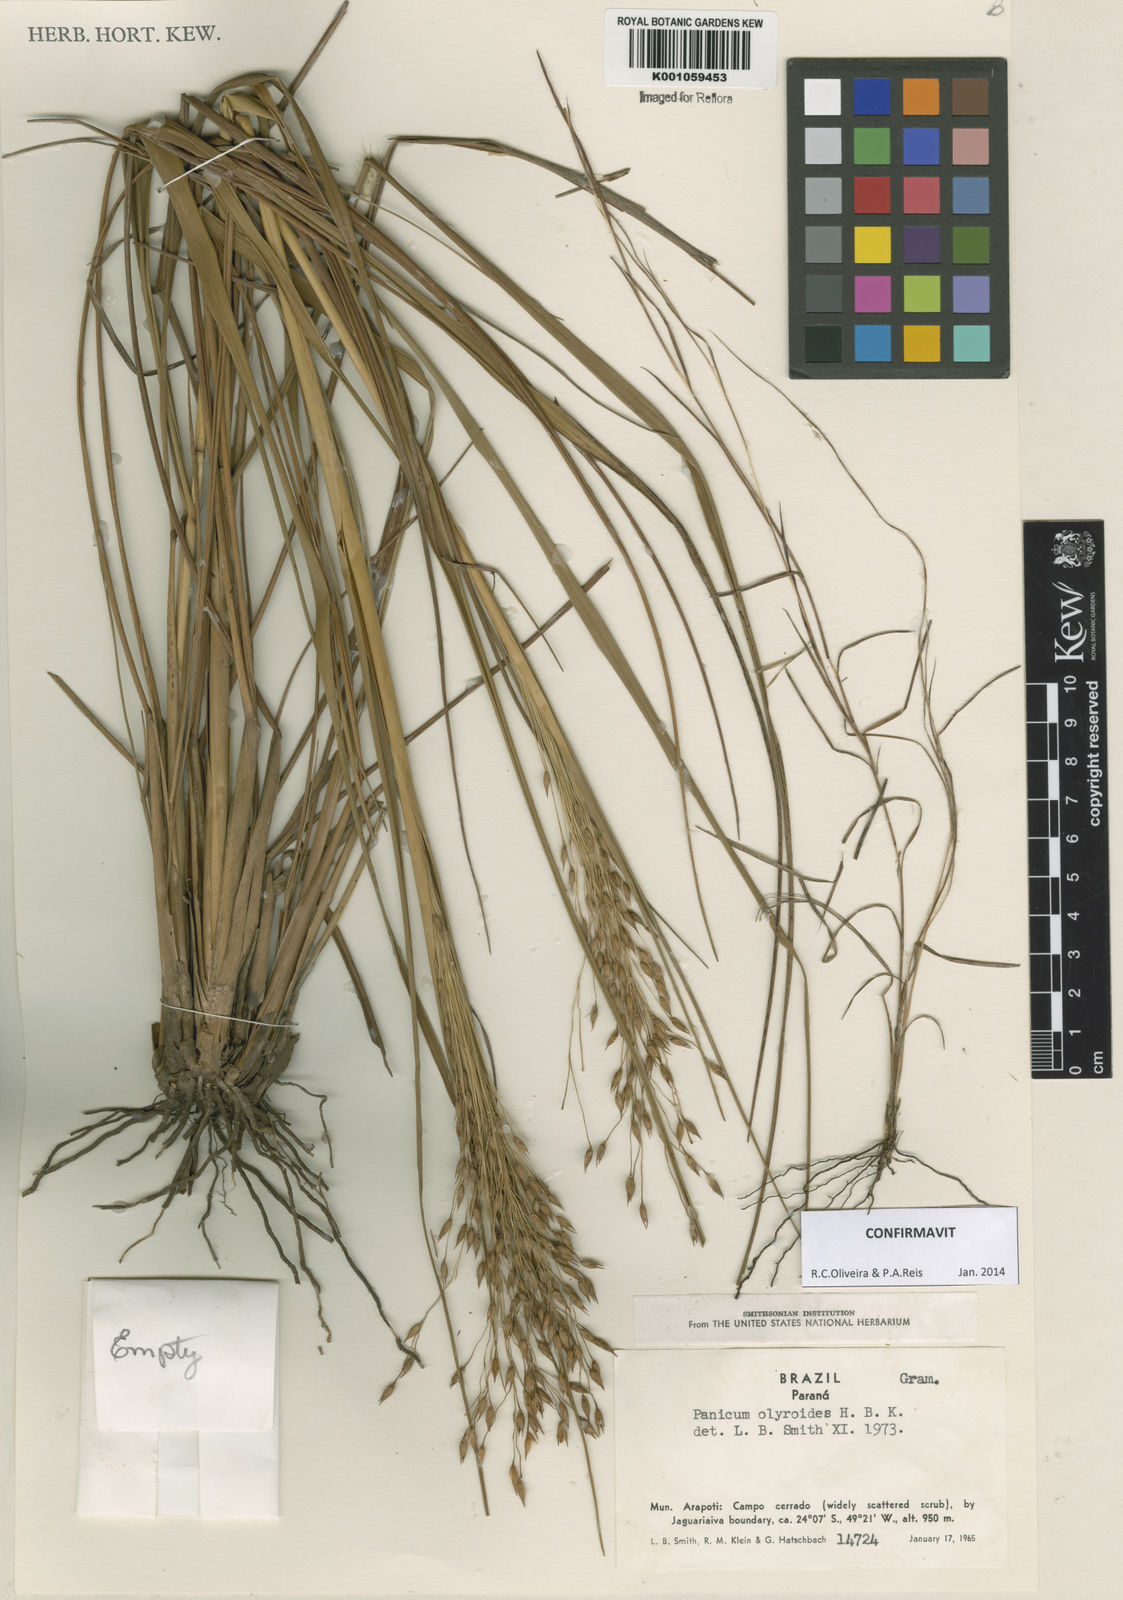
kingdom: Plantae
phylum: Tracheophyta
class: Liliopsida
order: Poales
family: Poaceae
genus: Panicum
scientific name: Panicum olyroides
